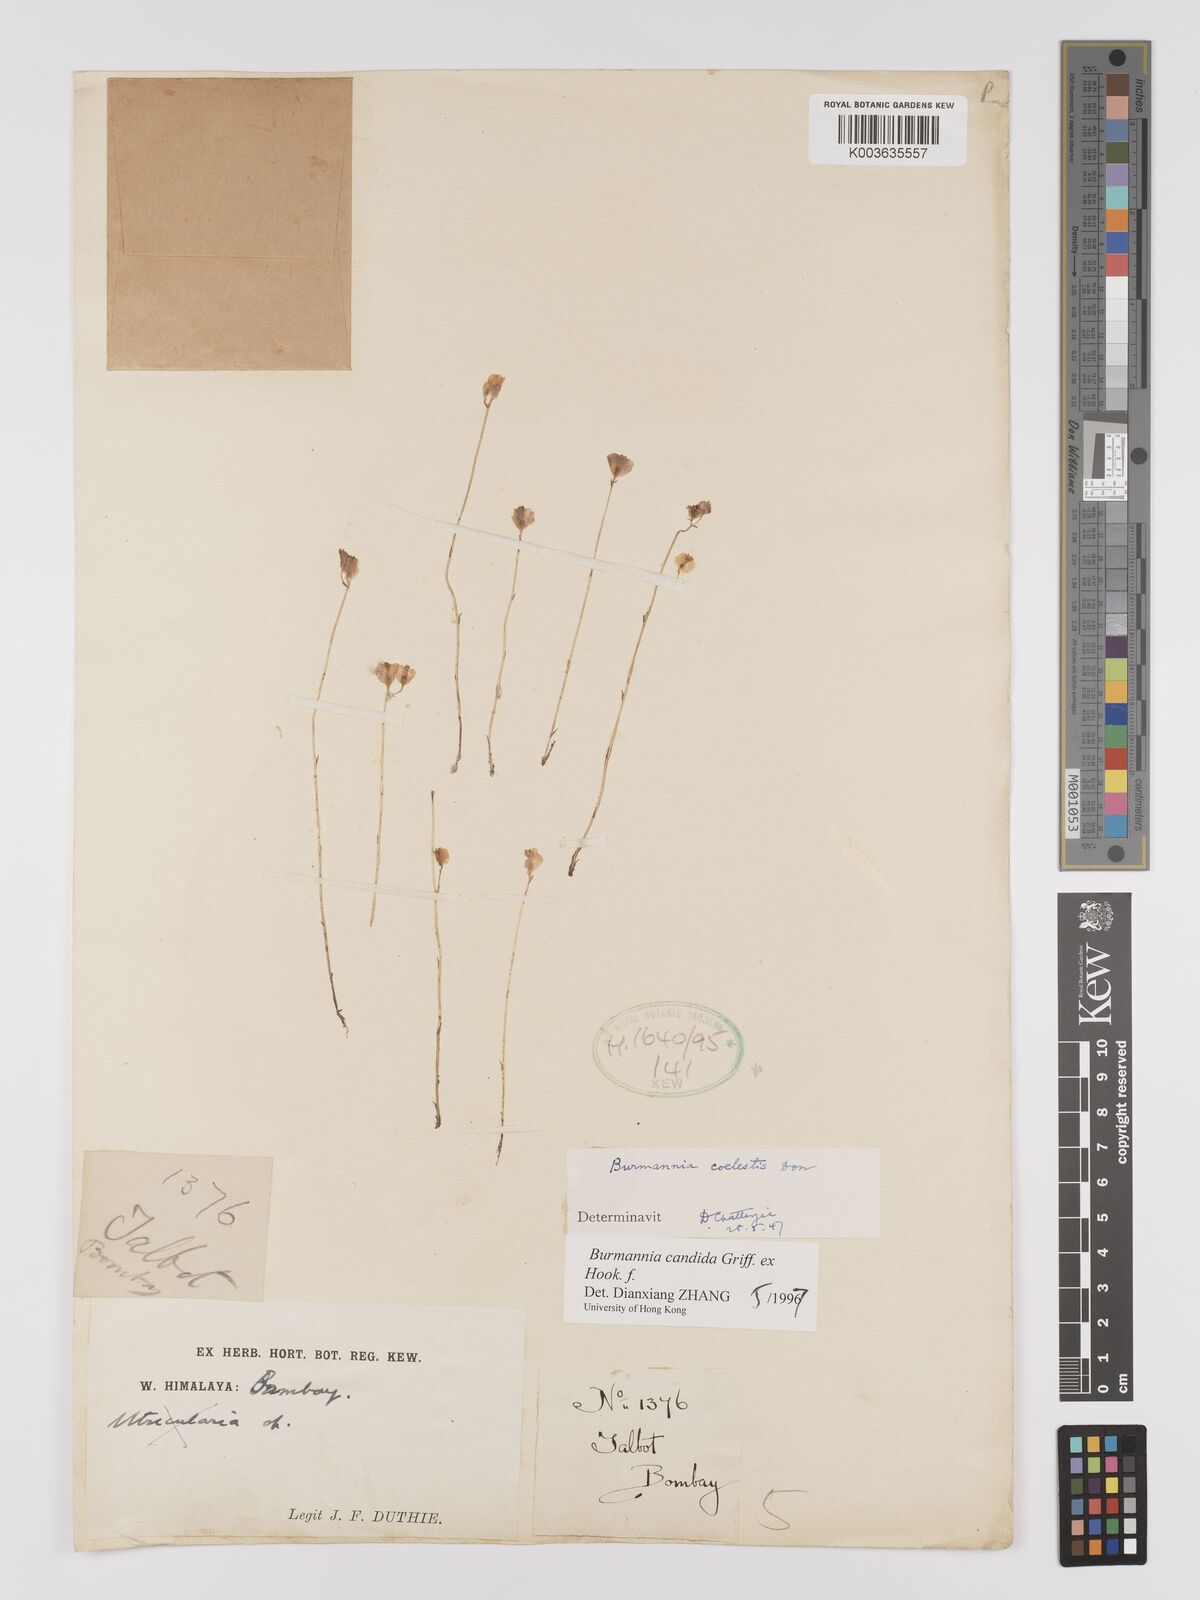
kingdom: Plantae
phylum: Tracheophyta
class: Liliopsida
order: Dioscoreales
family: Burmanniaceae
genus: Burmannia
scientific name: Burmannia coelestis
